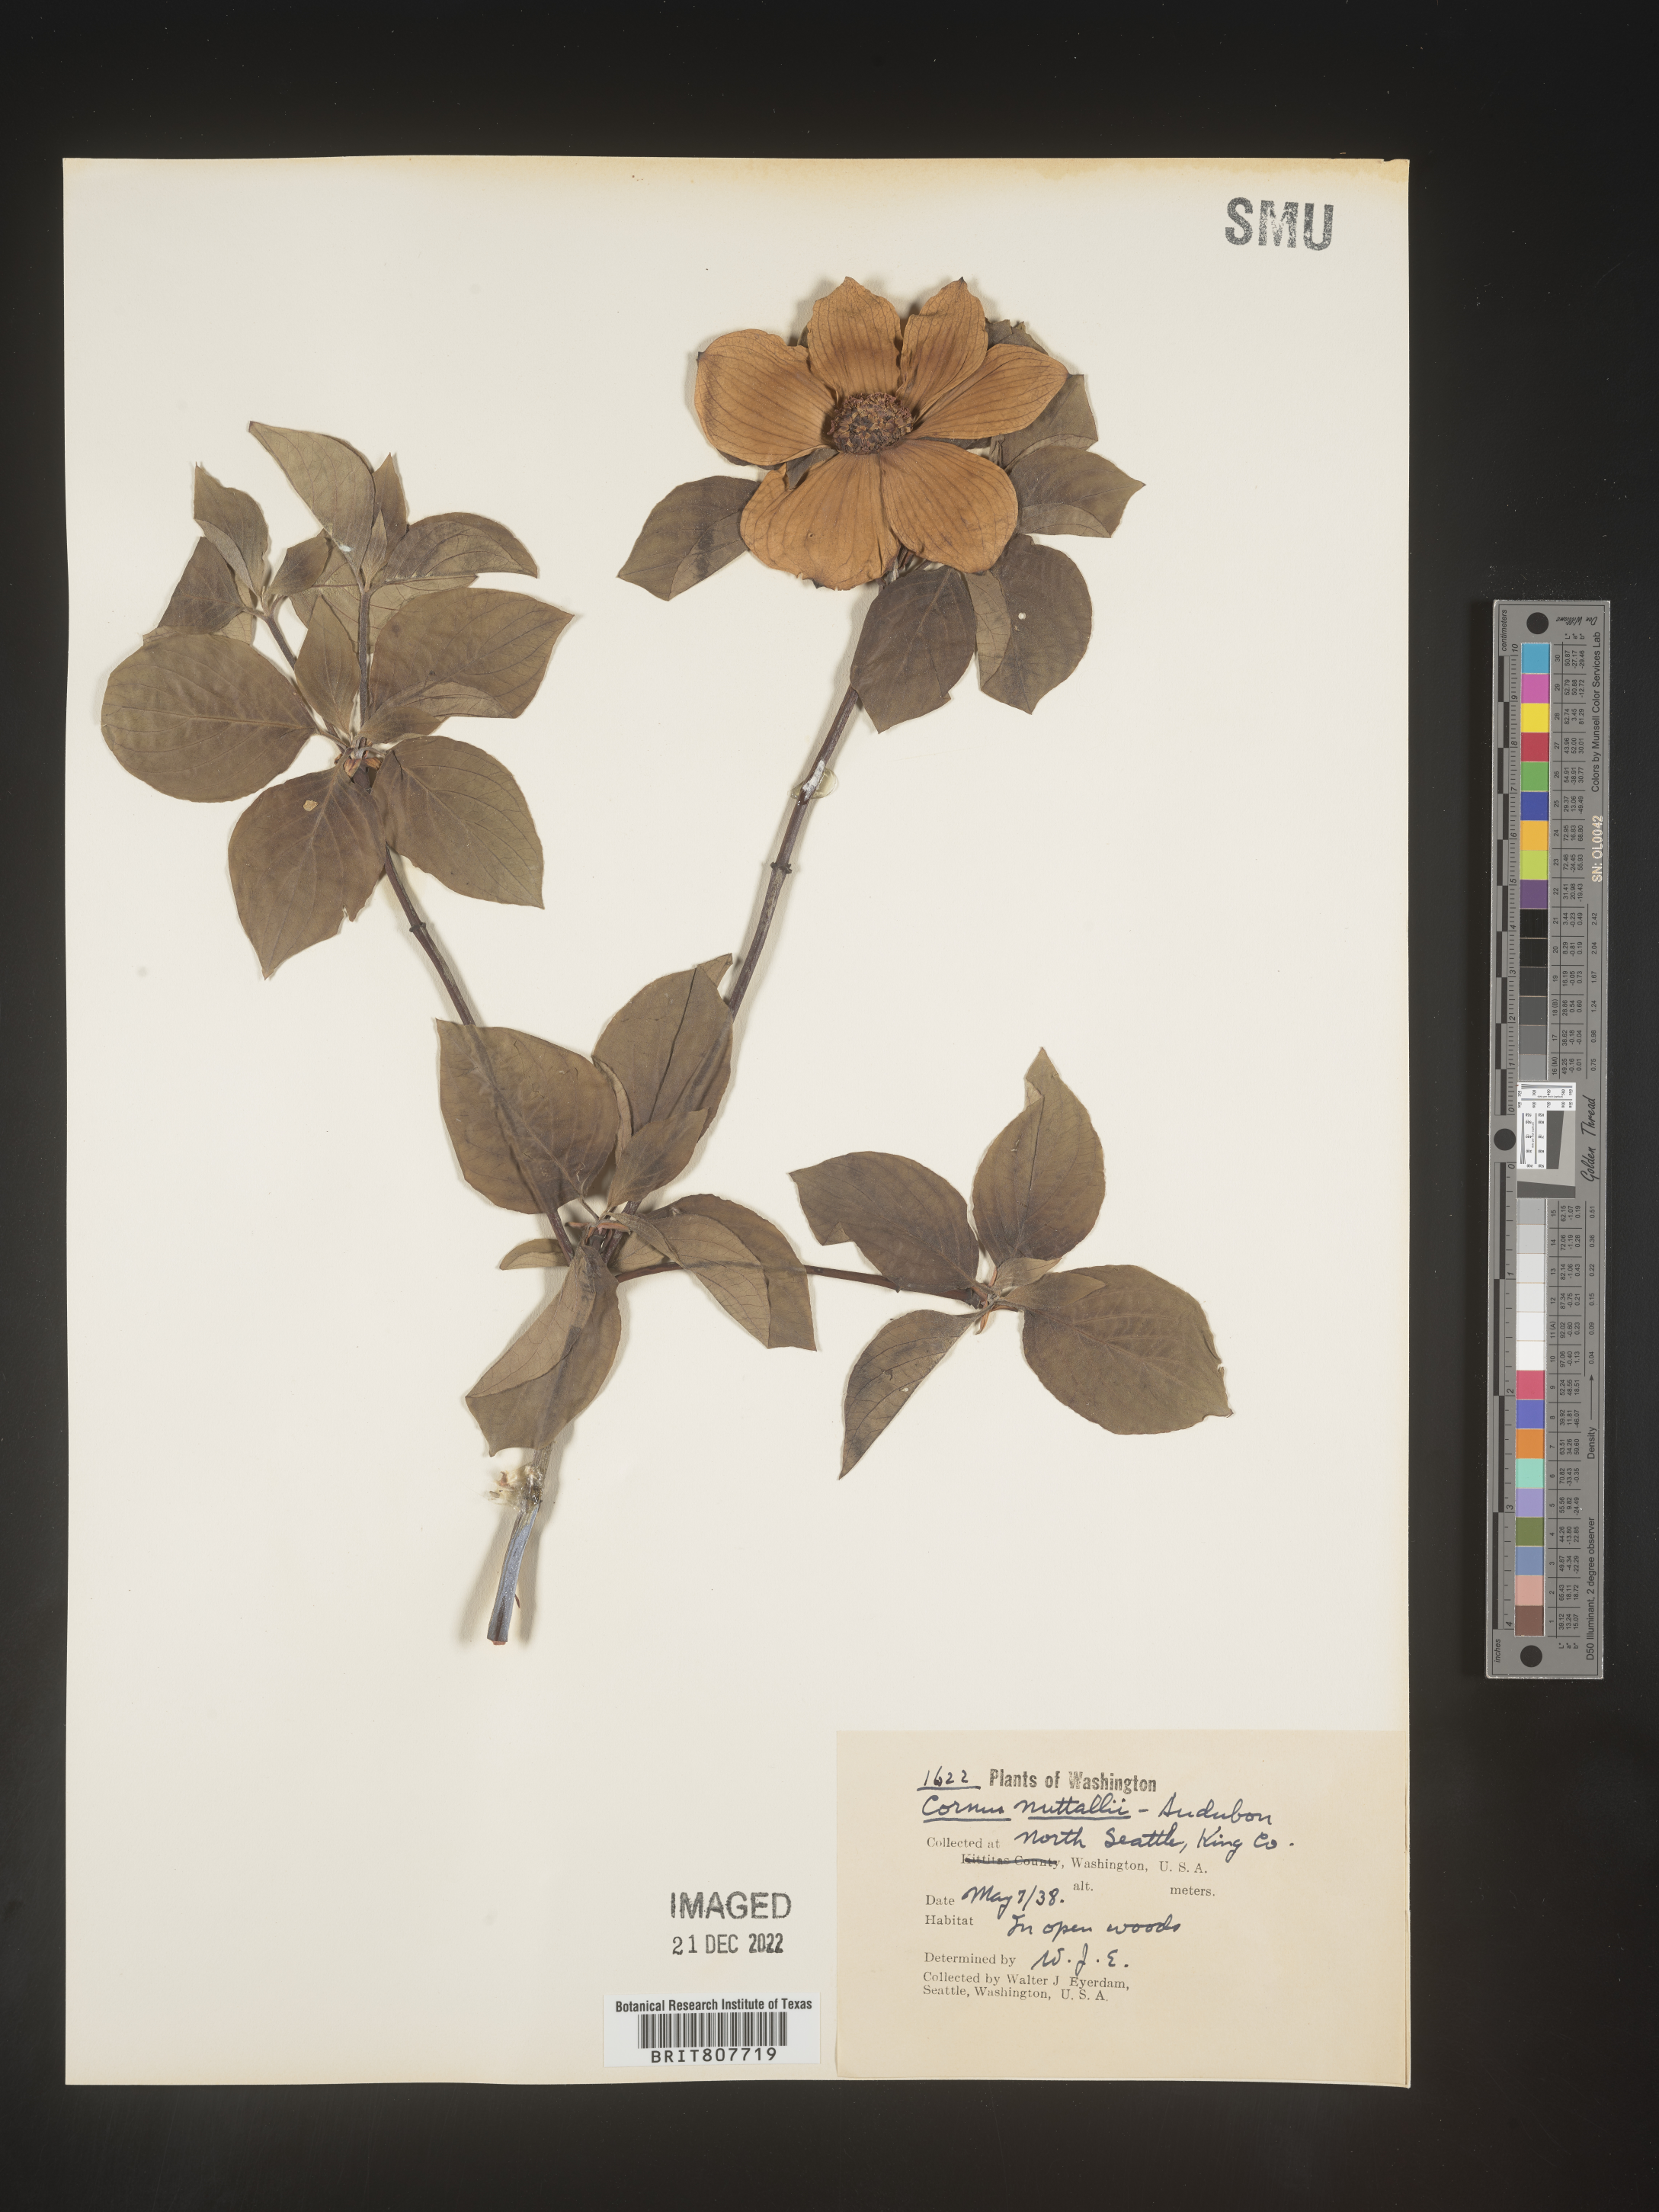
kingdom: Plantae
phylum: Tracheophyta
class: Magnoliopsida
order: Cornales
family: Cornaceae
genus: Cornus
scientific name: Cornus nuttallii
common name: Pacific dogwood
